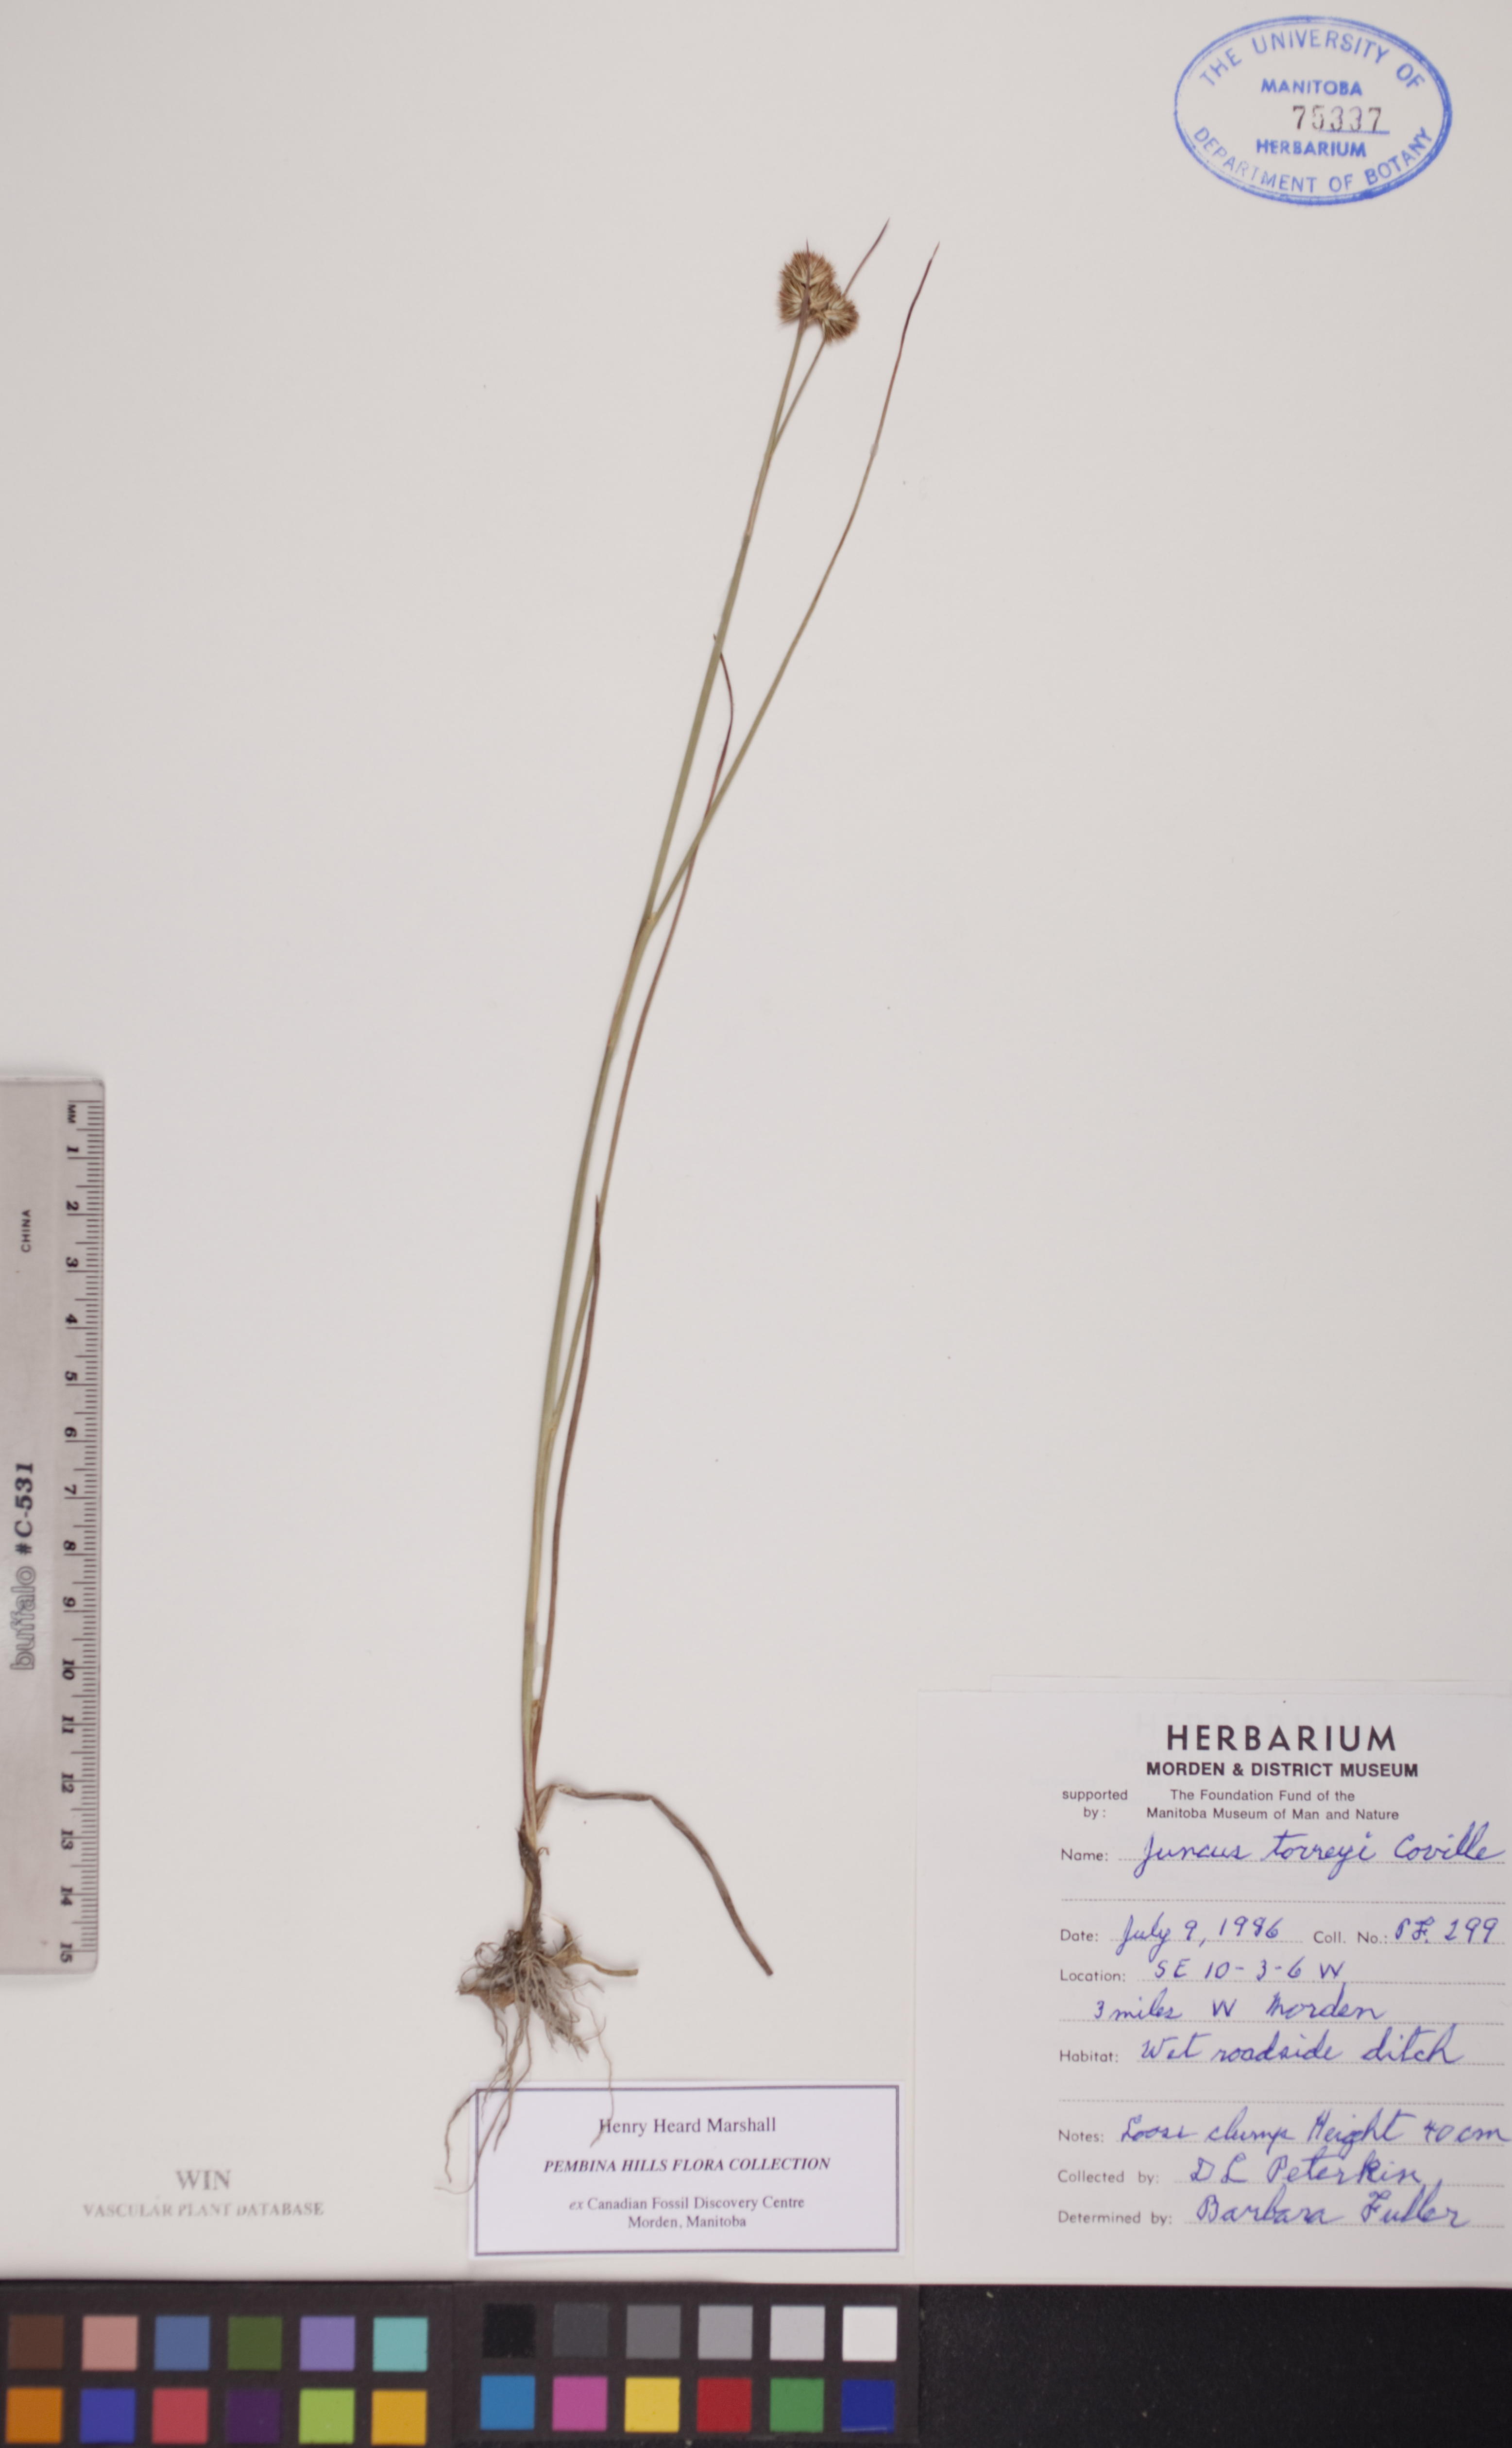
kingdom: Plantae
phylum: Tracheophyta
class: Liliopsida
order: Poales
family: Juncaceae
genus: Juncus
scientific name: Juncus torreyi
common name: Torrey's rush
